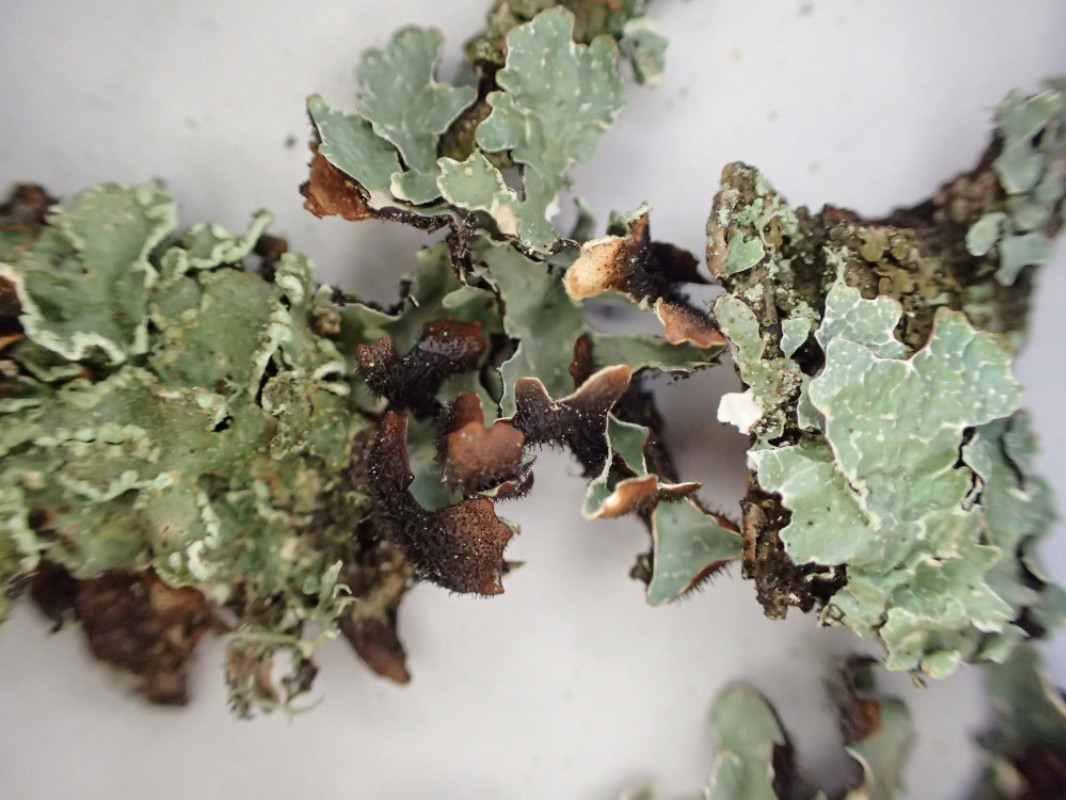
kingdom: Fungi
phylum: Ascomycota
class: Lecanoromycetes
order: Lecanorales
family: Parmeliaceae
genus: Parmelia
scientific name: Parmelia sulcata
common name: rynket skållav
